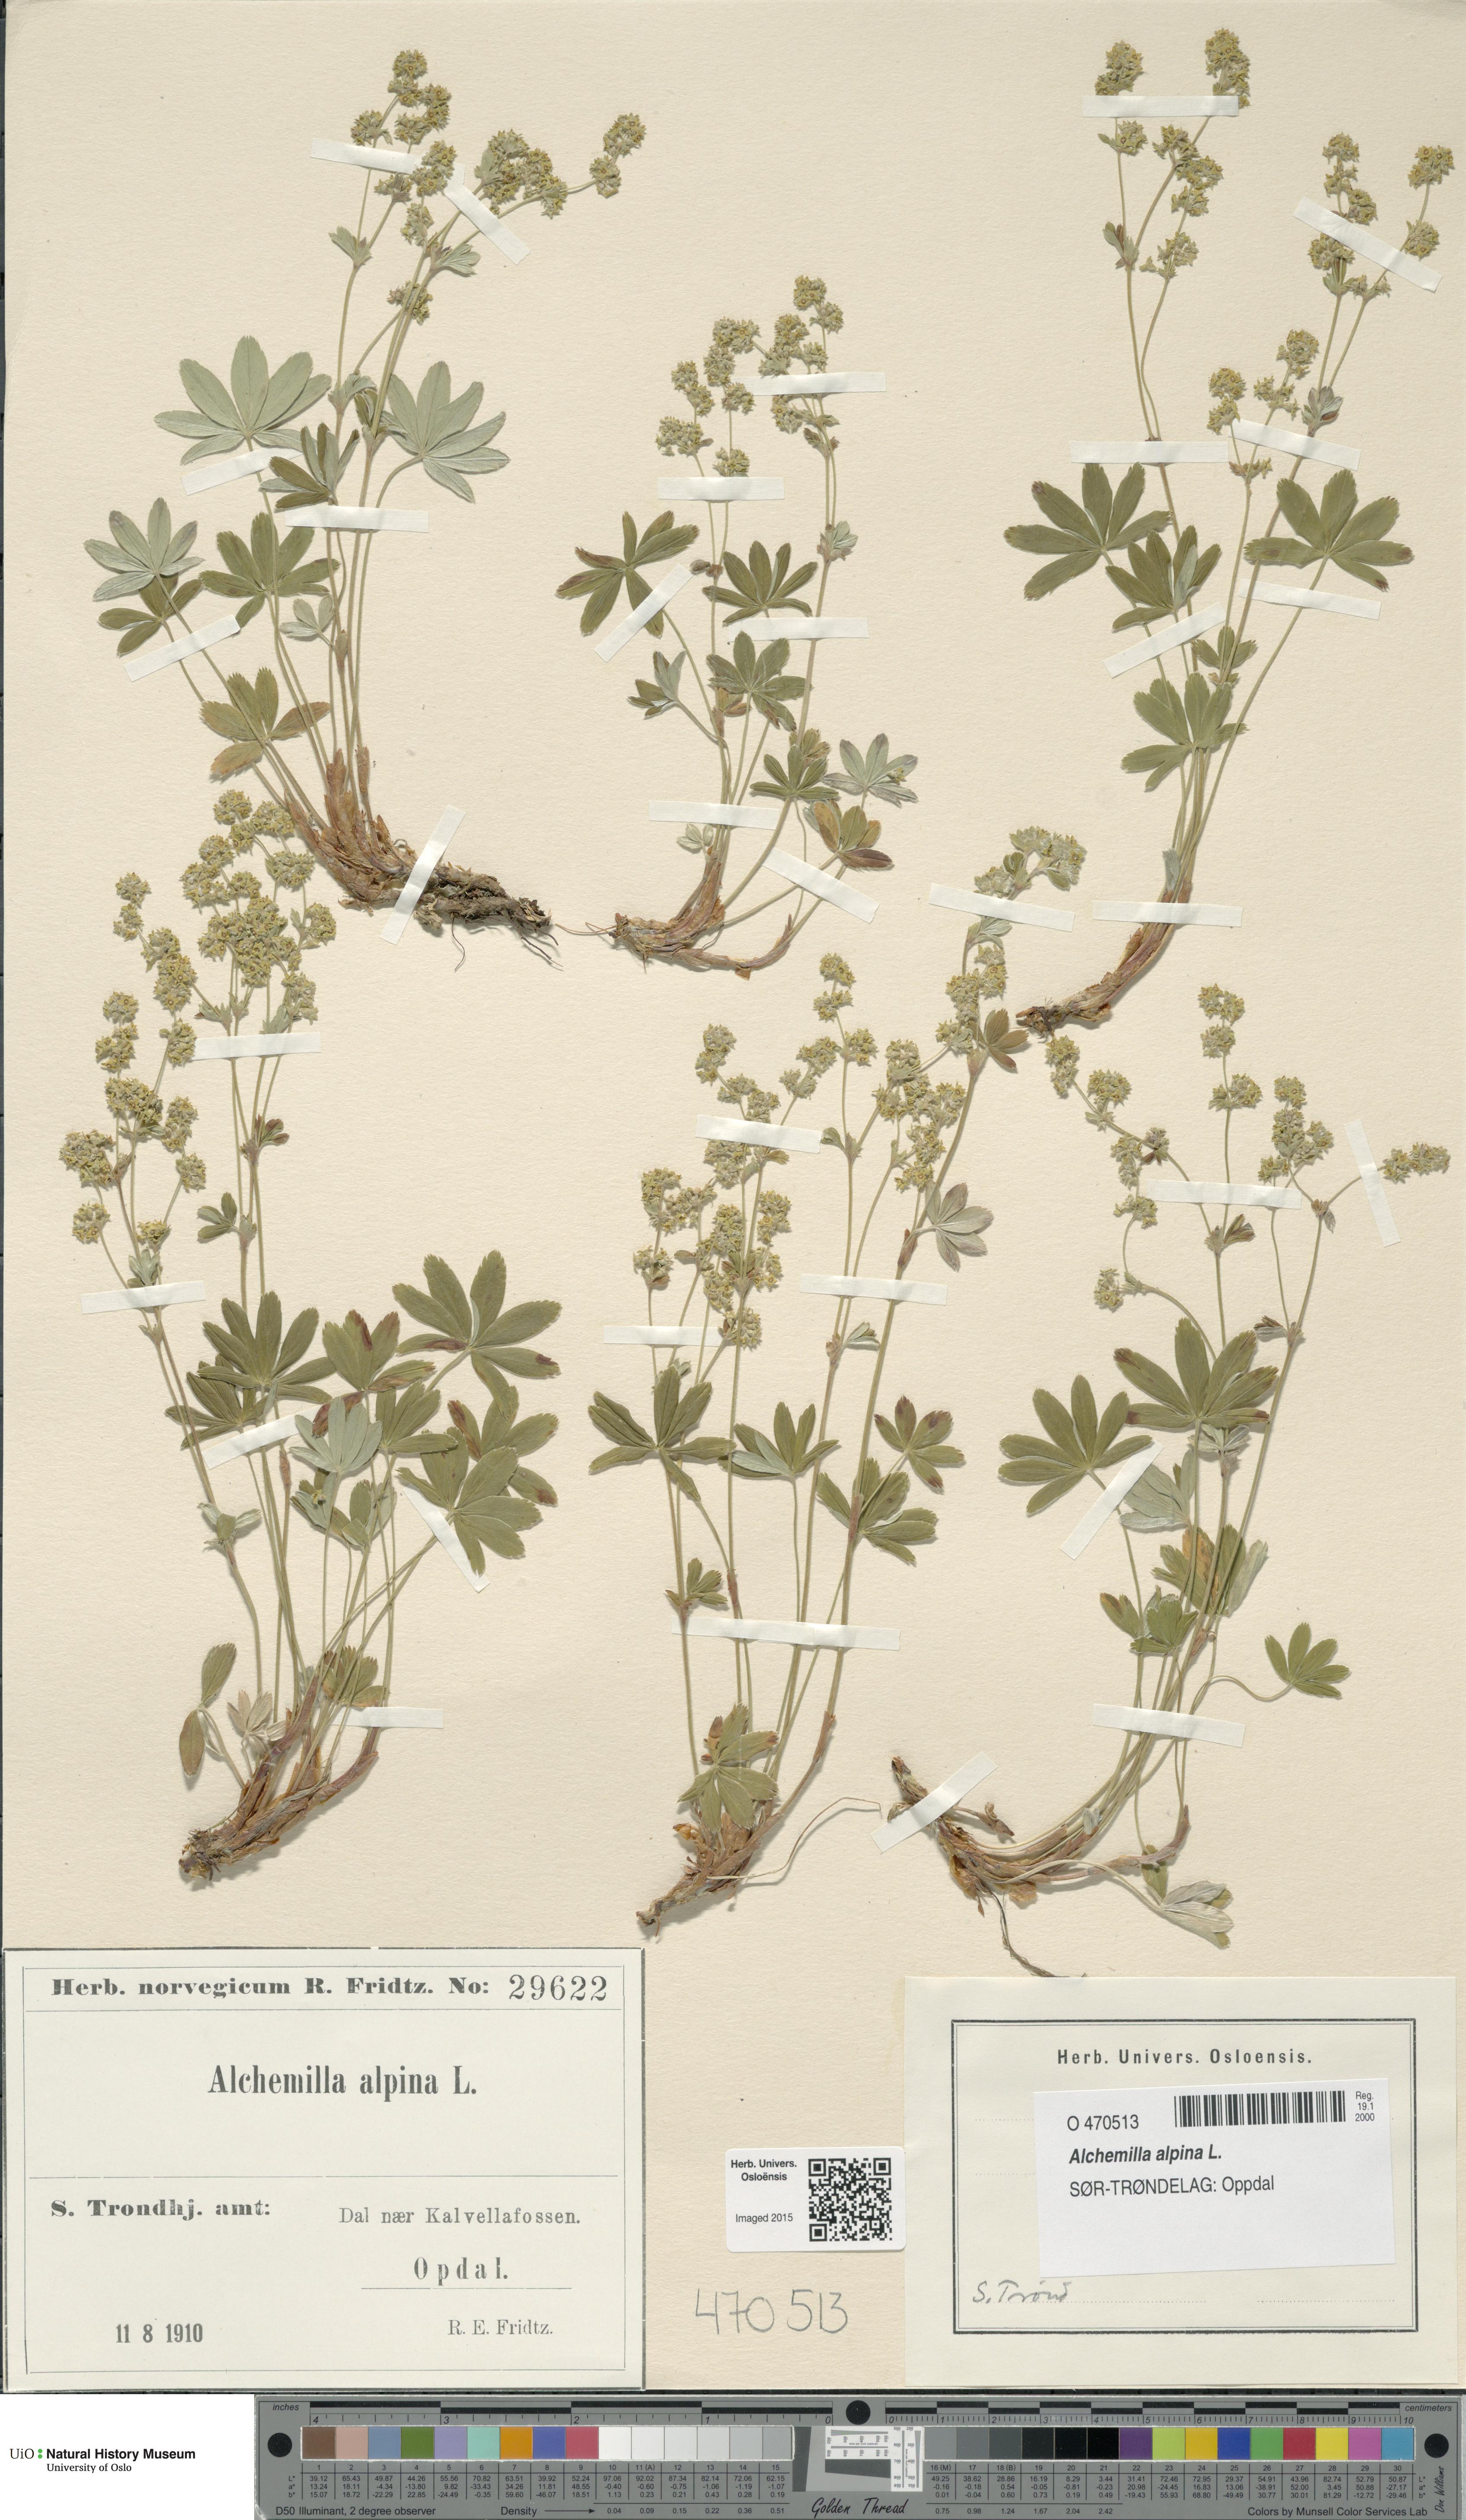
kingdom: Plantae
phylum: Tracheophyta
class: Magnoliopsida
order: Rosales
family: Rosaceae
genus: Alchemilla
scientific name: Alchemilla alpina
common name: Alpine lady's-mantle
